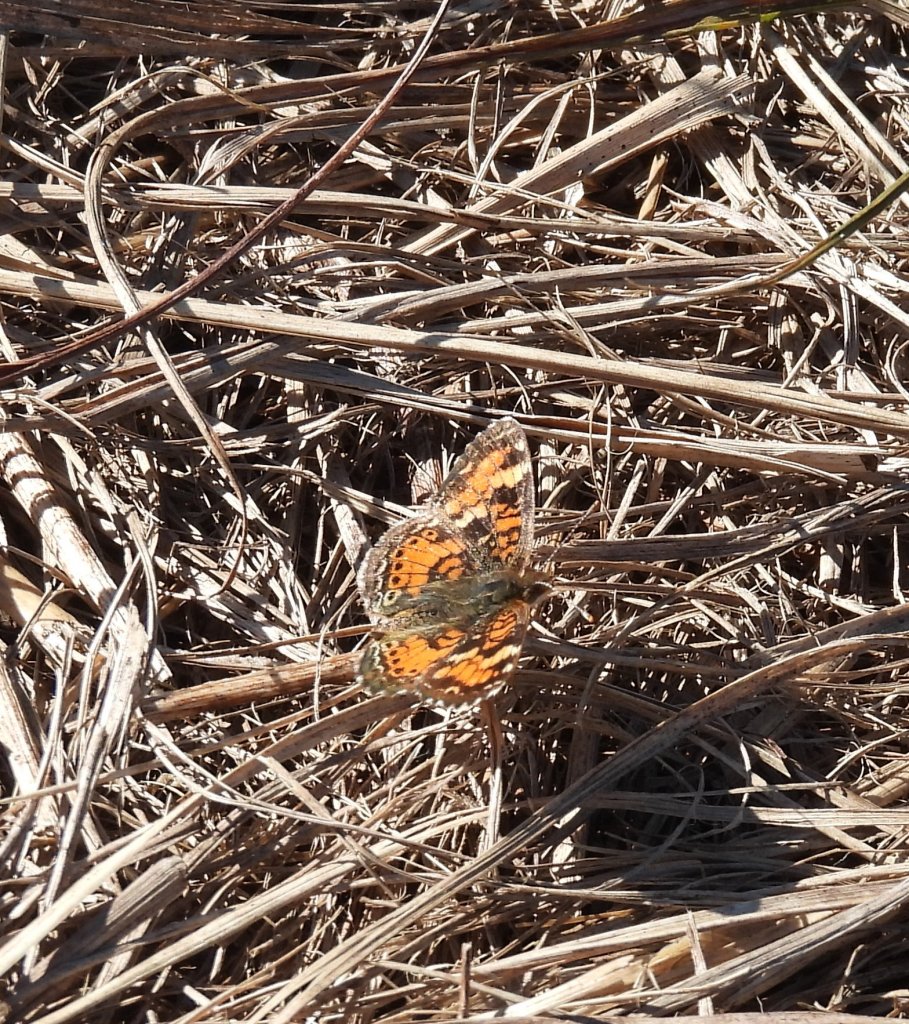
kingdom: Animalia
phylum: Arthropoda
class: Insecta
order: Lepidoptera
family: Nymphalidae
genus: Phyciodes
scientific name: Phyciodes phaon
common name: Phaon Crescent
